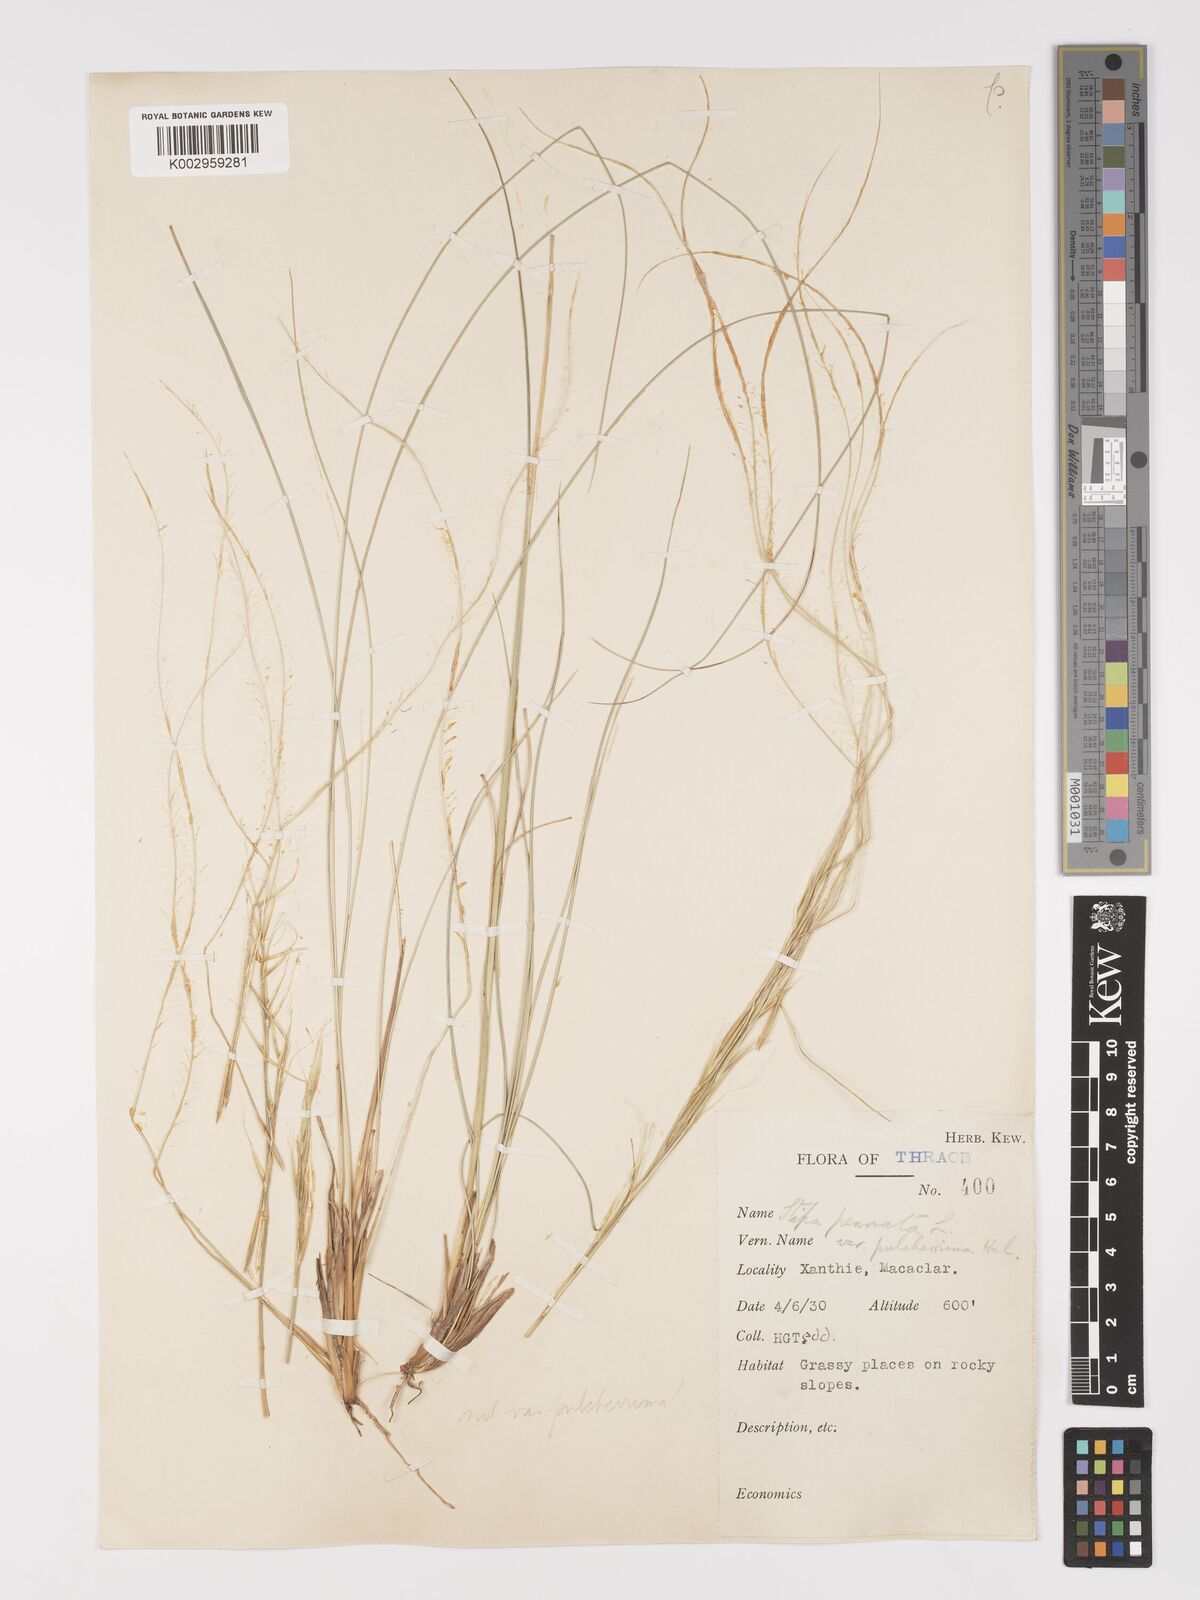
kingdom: Plantae
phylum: Tracheophyta
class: Liliopsida
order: Poales
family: Poaceae
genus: Stipa
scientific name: Stipa pulcherrima
